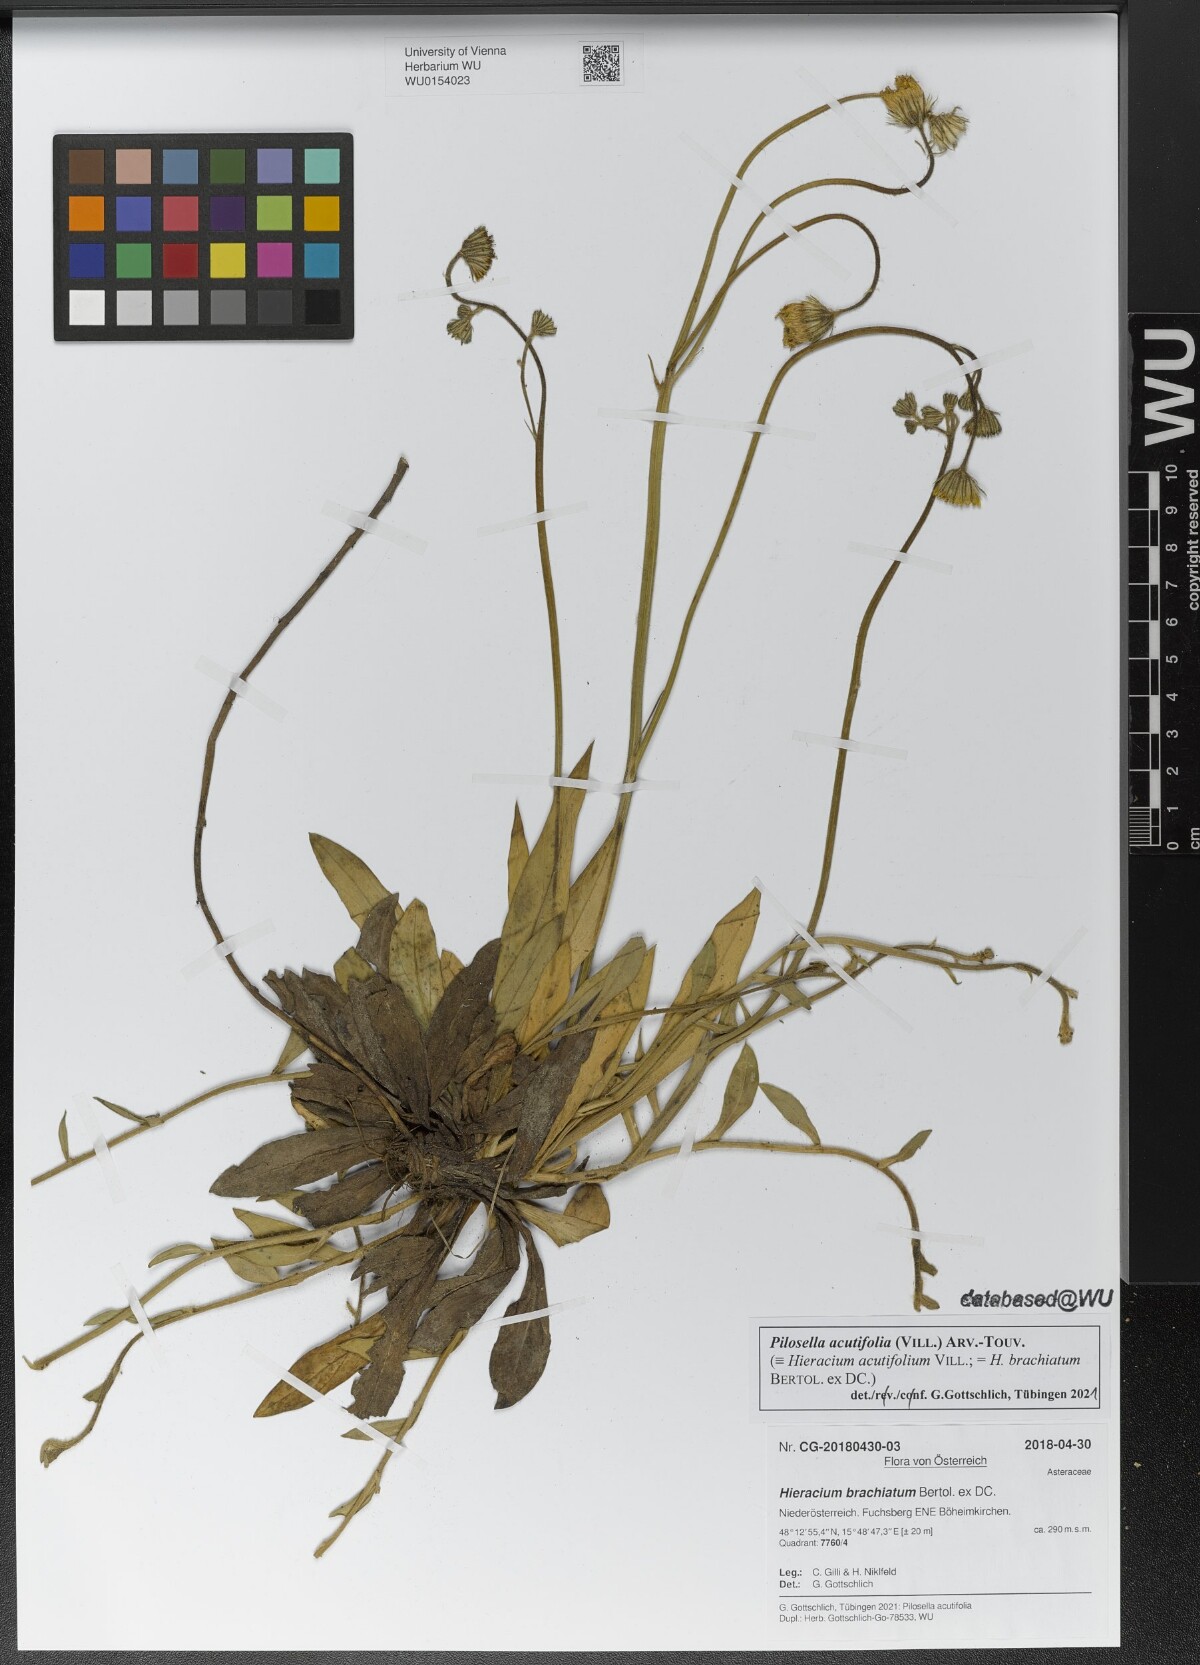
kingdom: Plantae
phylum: Tracheophyta
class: Magnoliopsida
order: Asterales
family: Asteraceae
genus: Pilosella
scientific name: Pilosella acutifolia
